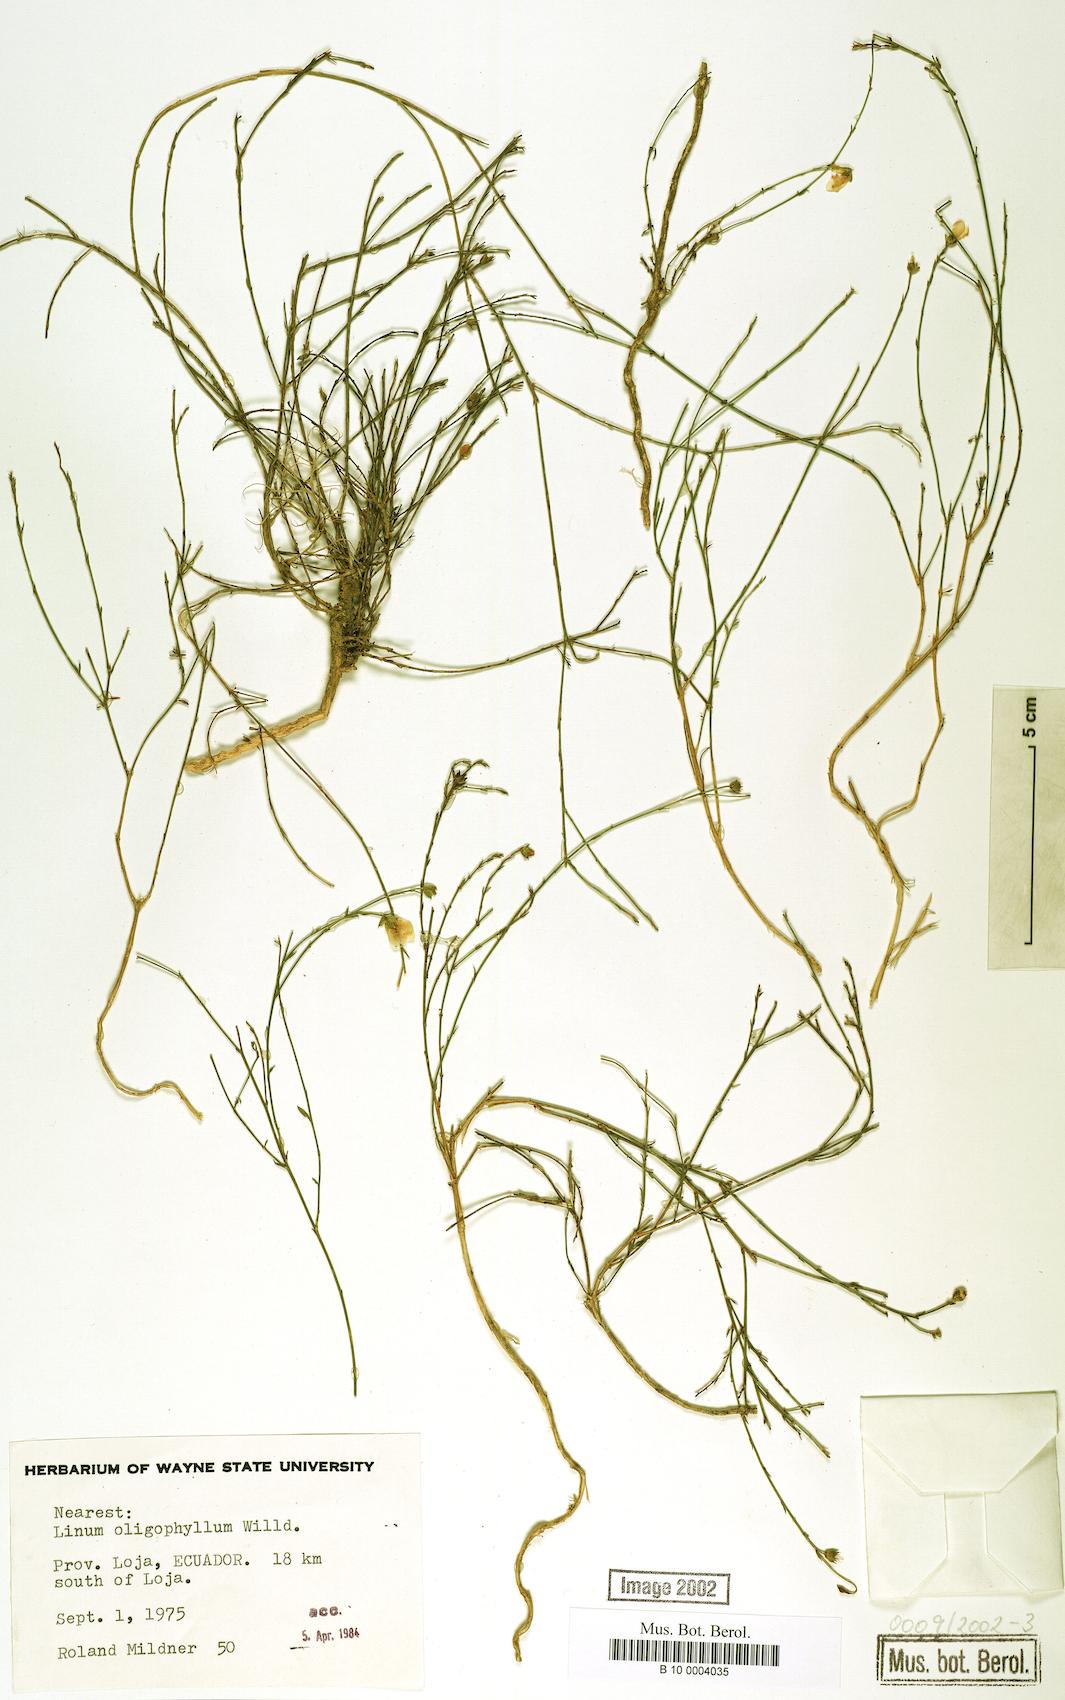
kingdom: Plantae
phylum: Tracheophyta
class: Magnoliopsida
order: Malpighiales
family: Linaceae
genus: Linum
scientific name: Linum
